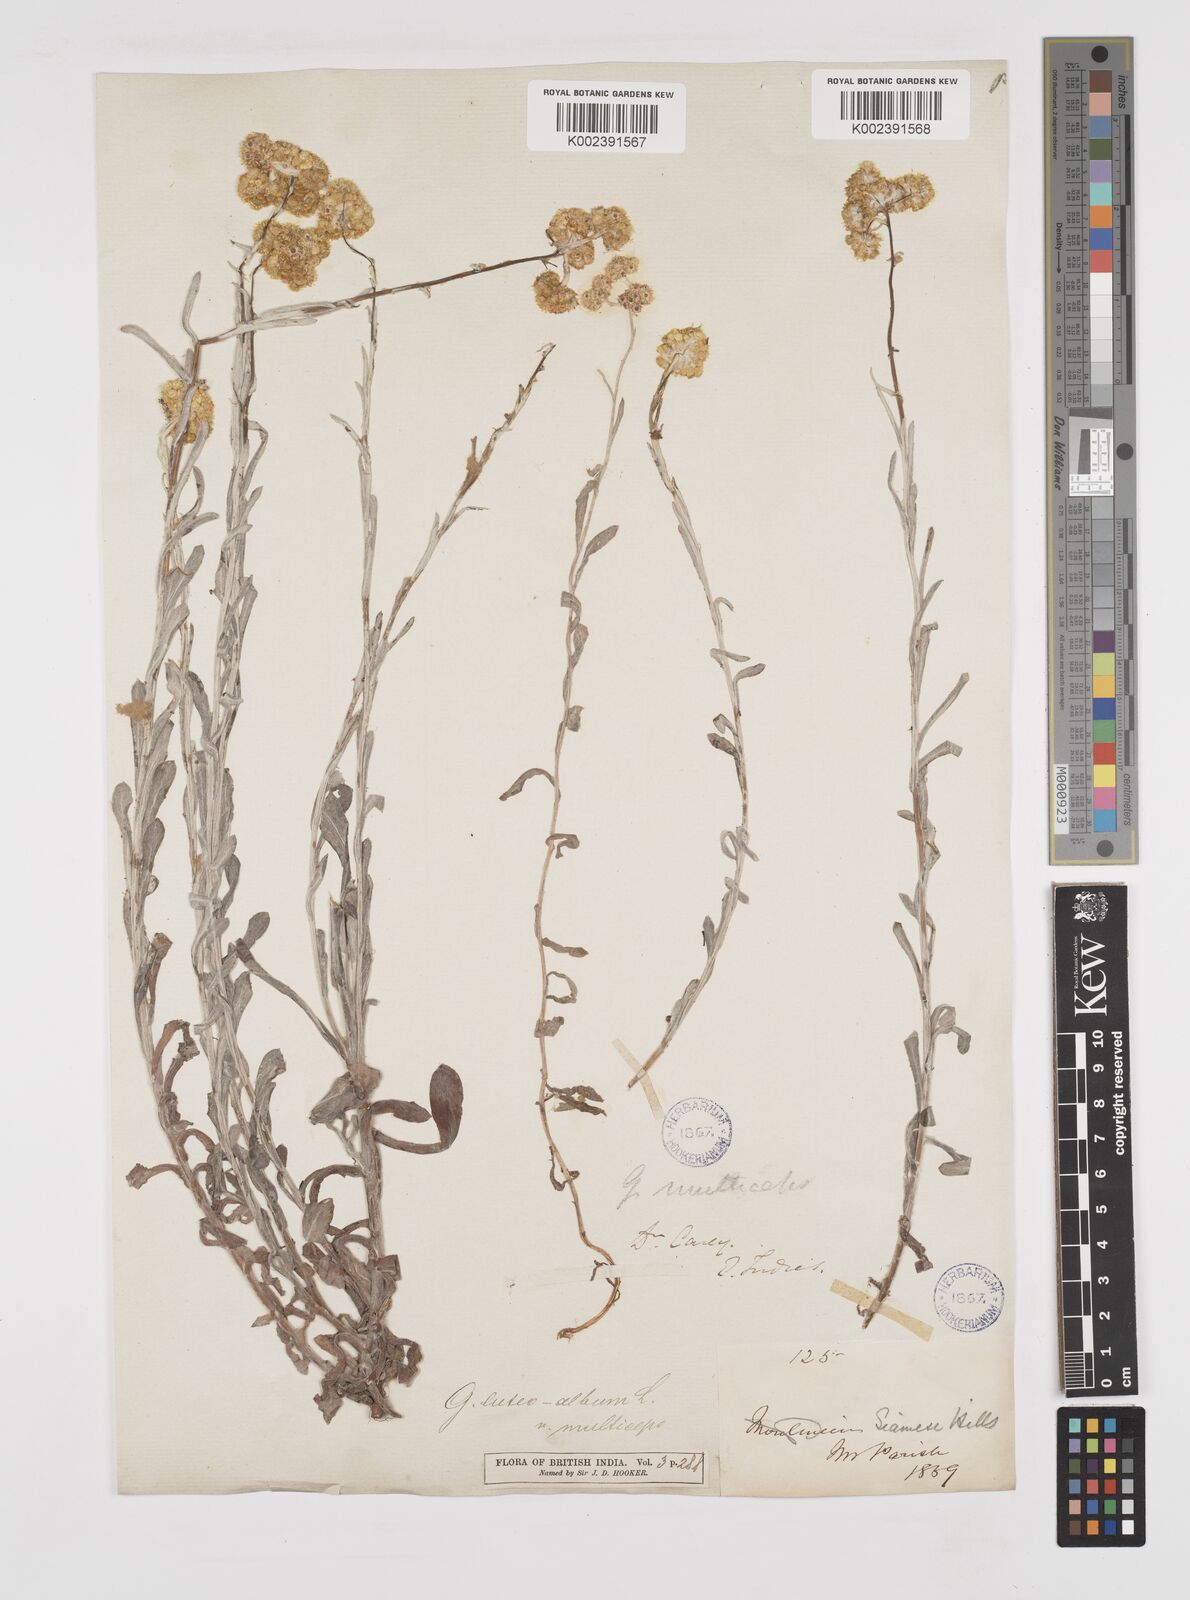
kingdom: Plantae
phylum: Tracheophyta
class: Magnoliopsida
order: Asterales
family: Asteraceae
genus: Pseudognaphalium
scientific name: Pseudognaphalium affine
